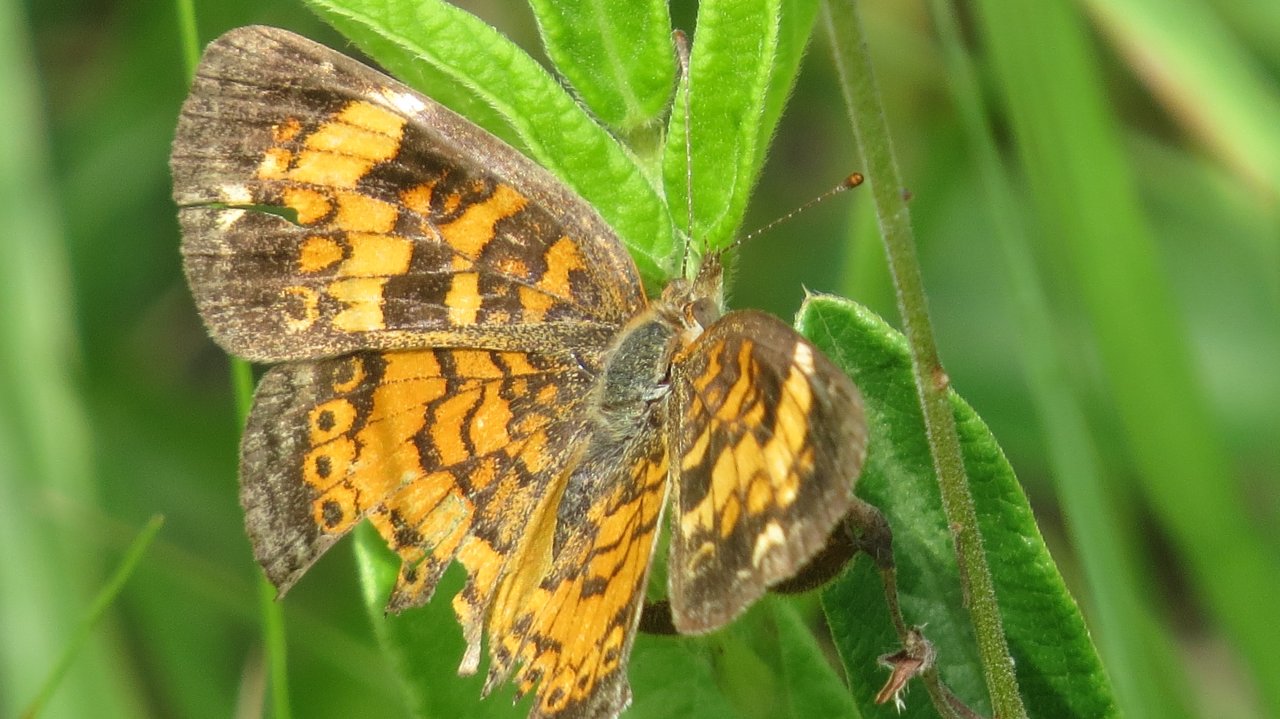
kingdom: Animalia
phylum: Arthropoda
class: Insecta
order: Lepidoptera
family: Nymphalidae
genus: Phyciodes
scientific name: Phyciodes tharos
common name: Pearl Crescent
